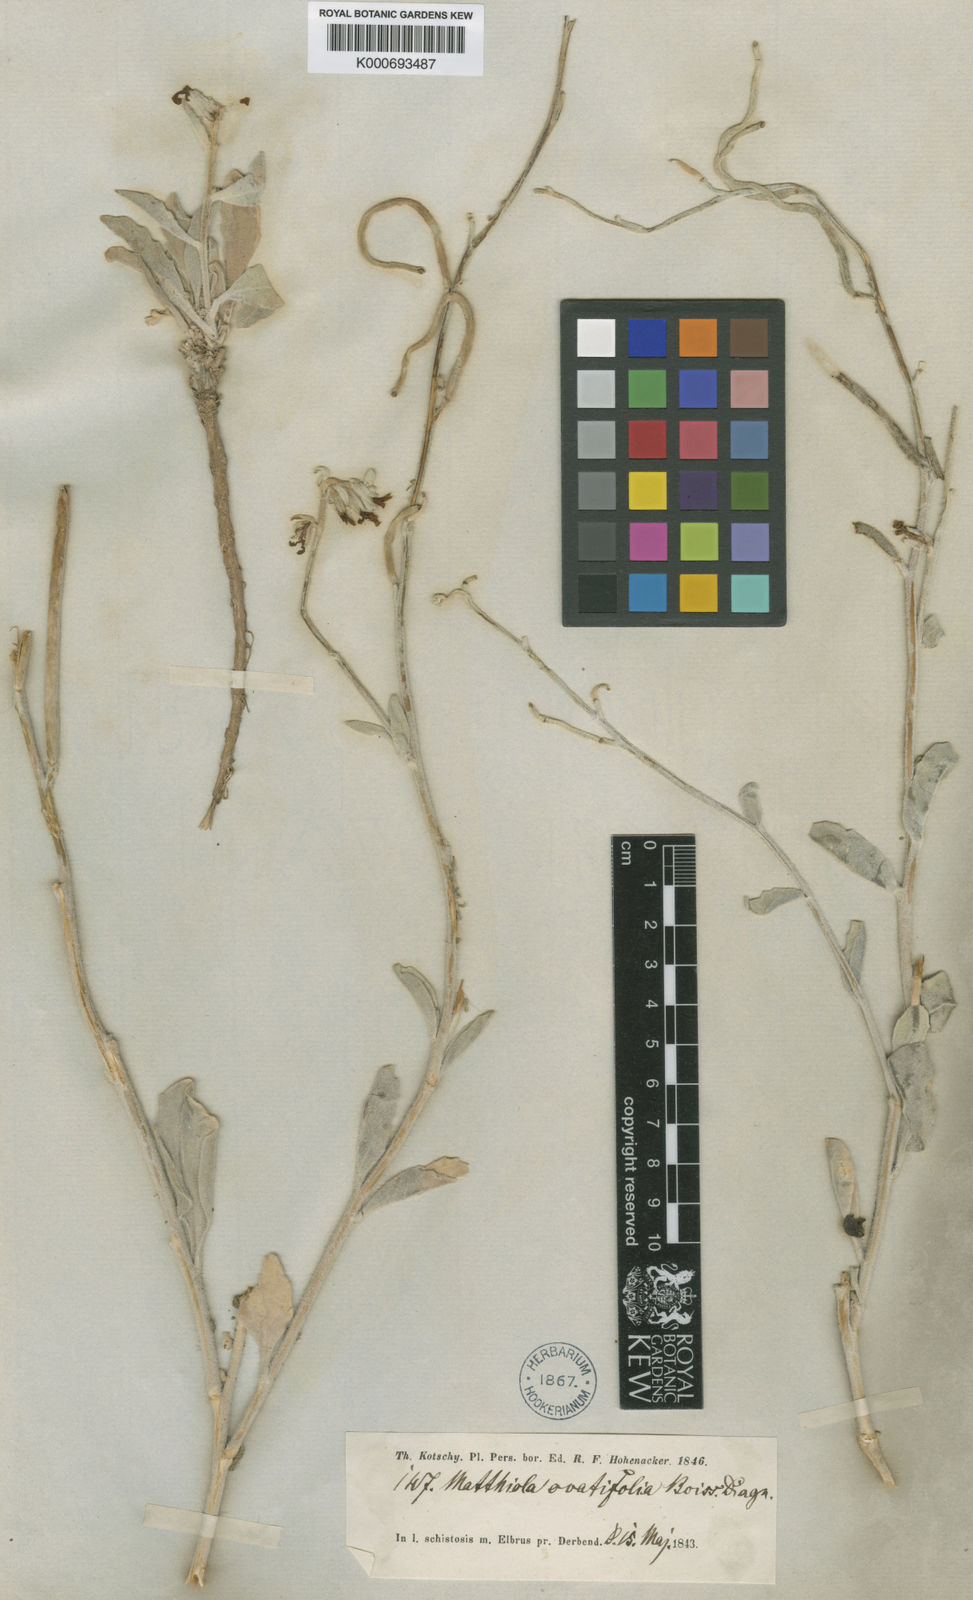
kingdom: Plantae
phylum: Tracheophyta
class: Magnoliopsida
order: Brassicales
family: Brassicaceae
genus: Matthiola
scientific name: Matthiola ovatifolia
